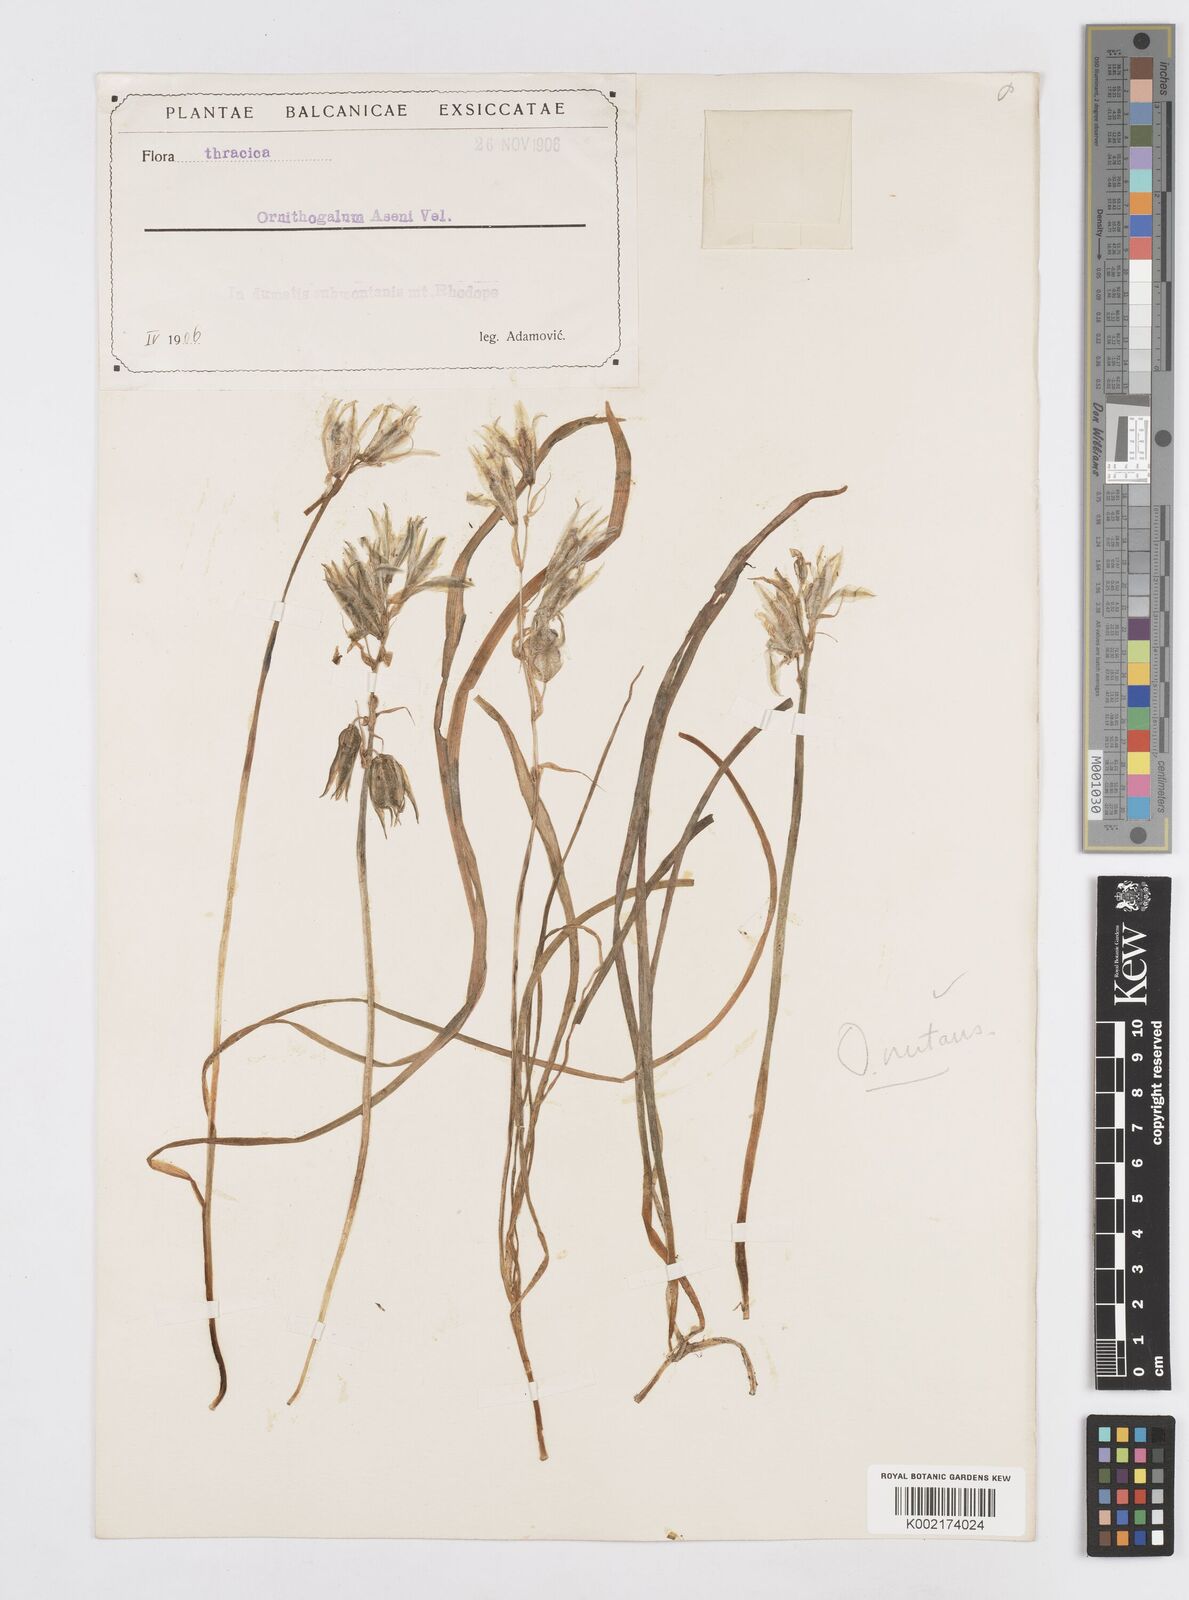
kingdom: Plantae
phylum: Tracheophyta
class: Liliopsida
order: Asparagales
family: Asparagaceae
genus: Ornithogalum
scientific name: Ornithogalum nutans
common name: Drooping star-of-bethlehem
